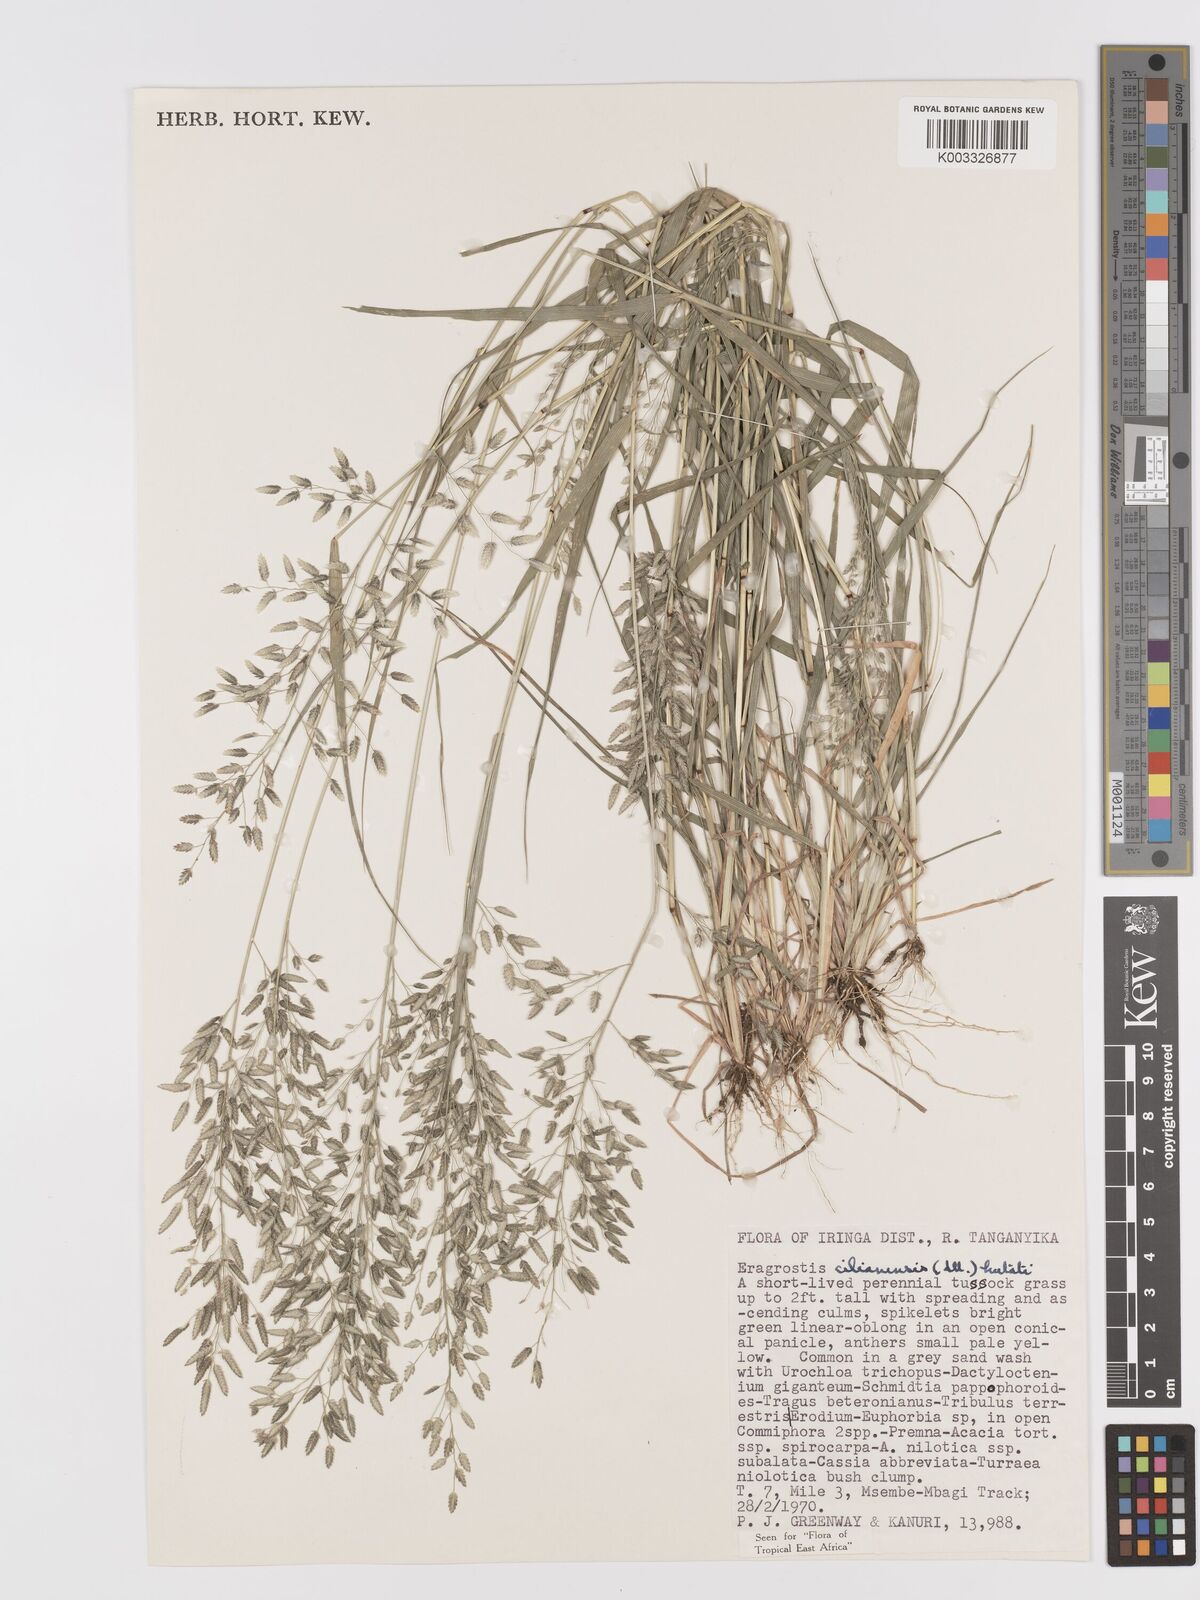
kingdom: Plantae
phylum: Tracheophyta
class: Liliopsida
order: Poales
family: Poaceae
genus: Eragrostis
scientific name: Eragrostis cilianensis
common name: Stinkgrass
